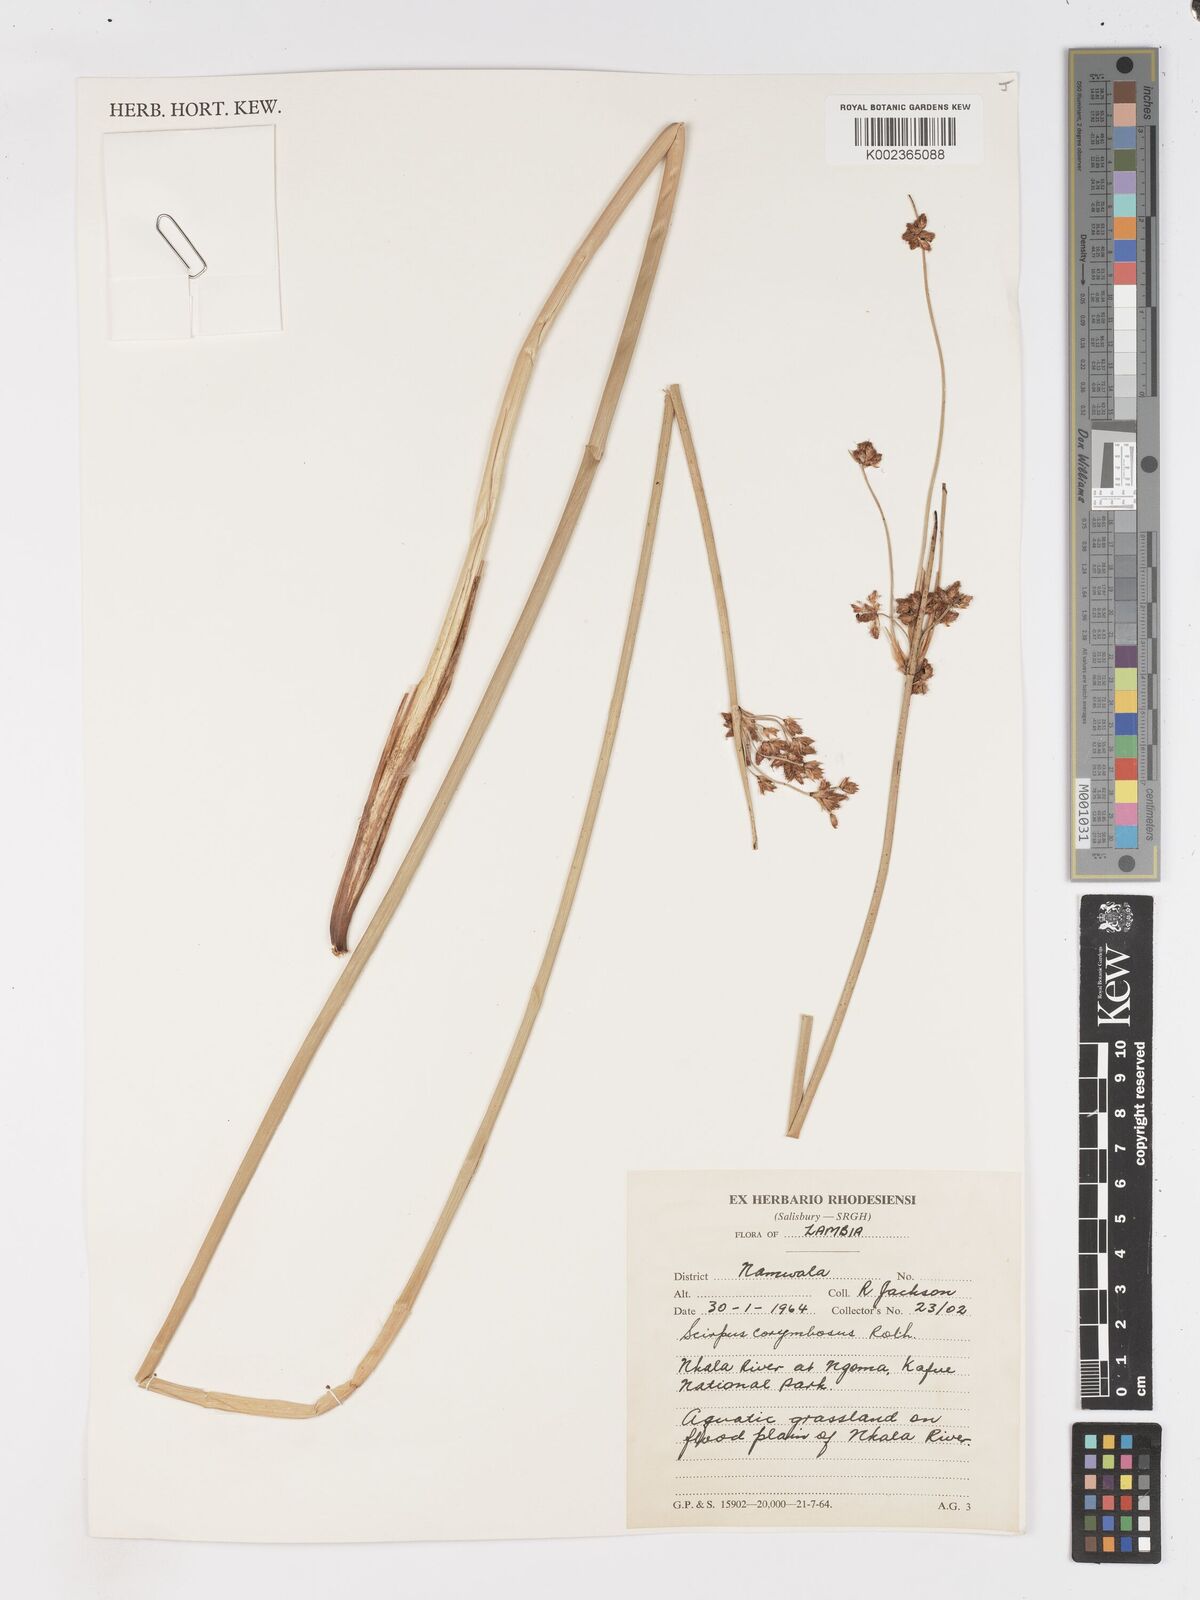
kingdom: Plantae
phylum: Tracheophyta
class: Liliopsida
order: Poales
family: Cyperaceae
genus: Schoenoplectiella
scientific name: Schoenoplectiella brachyceras
